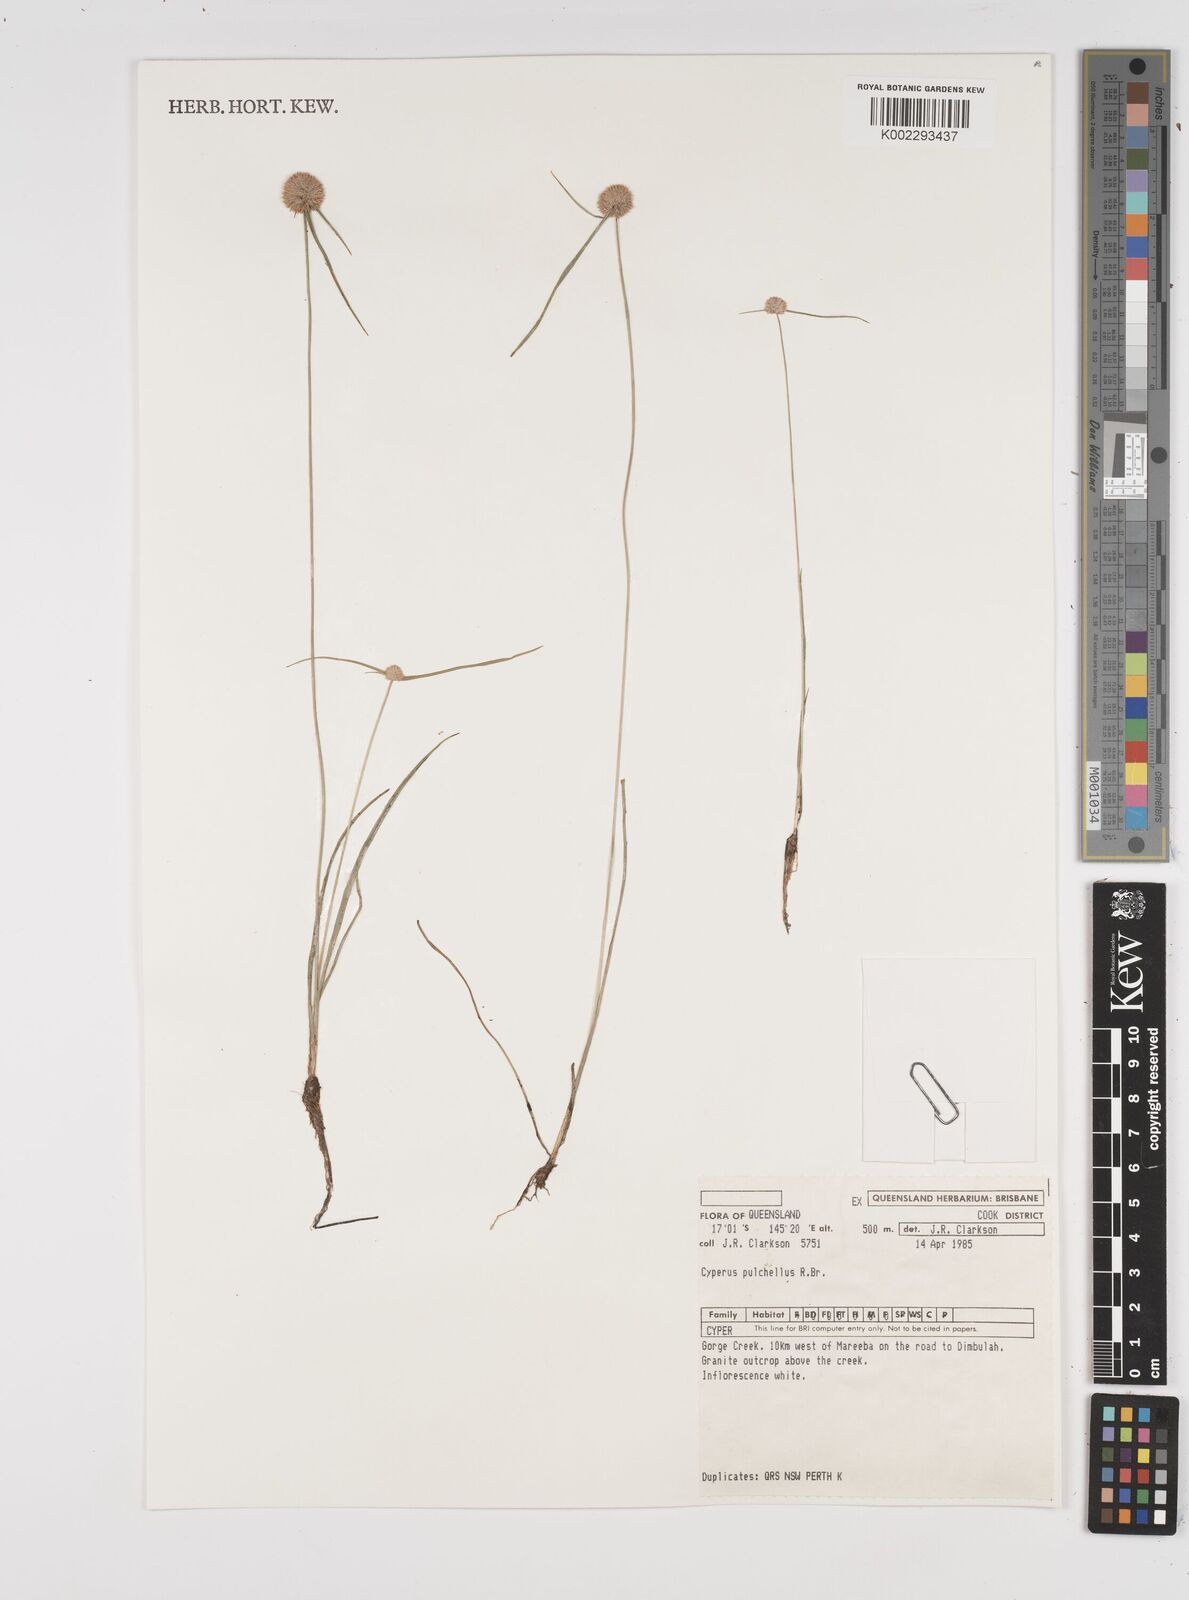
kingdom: Plantae
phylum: Tracheophyta
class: Liliopsida
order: Poales
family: Cyperaceae
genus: Cyperus
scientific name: Cyperus pulchellus
